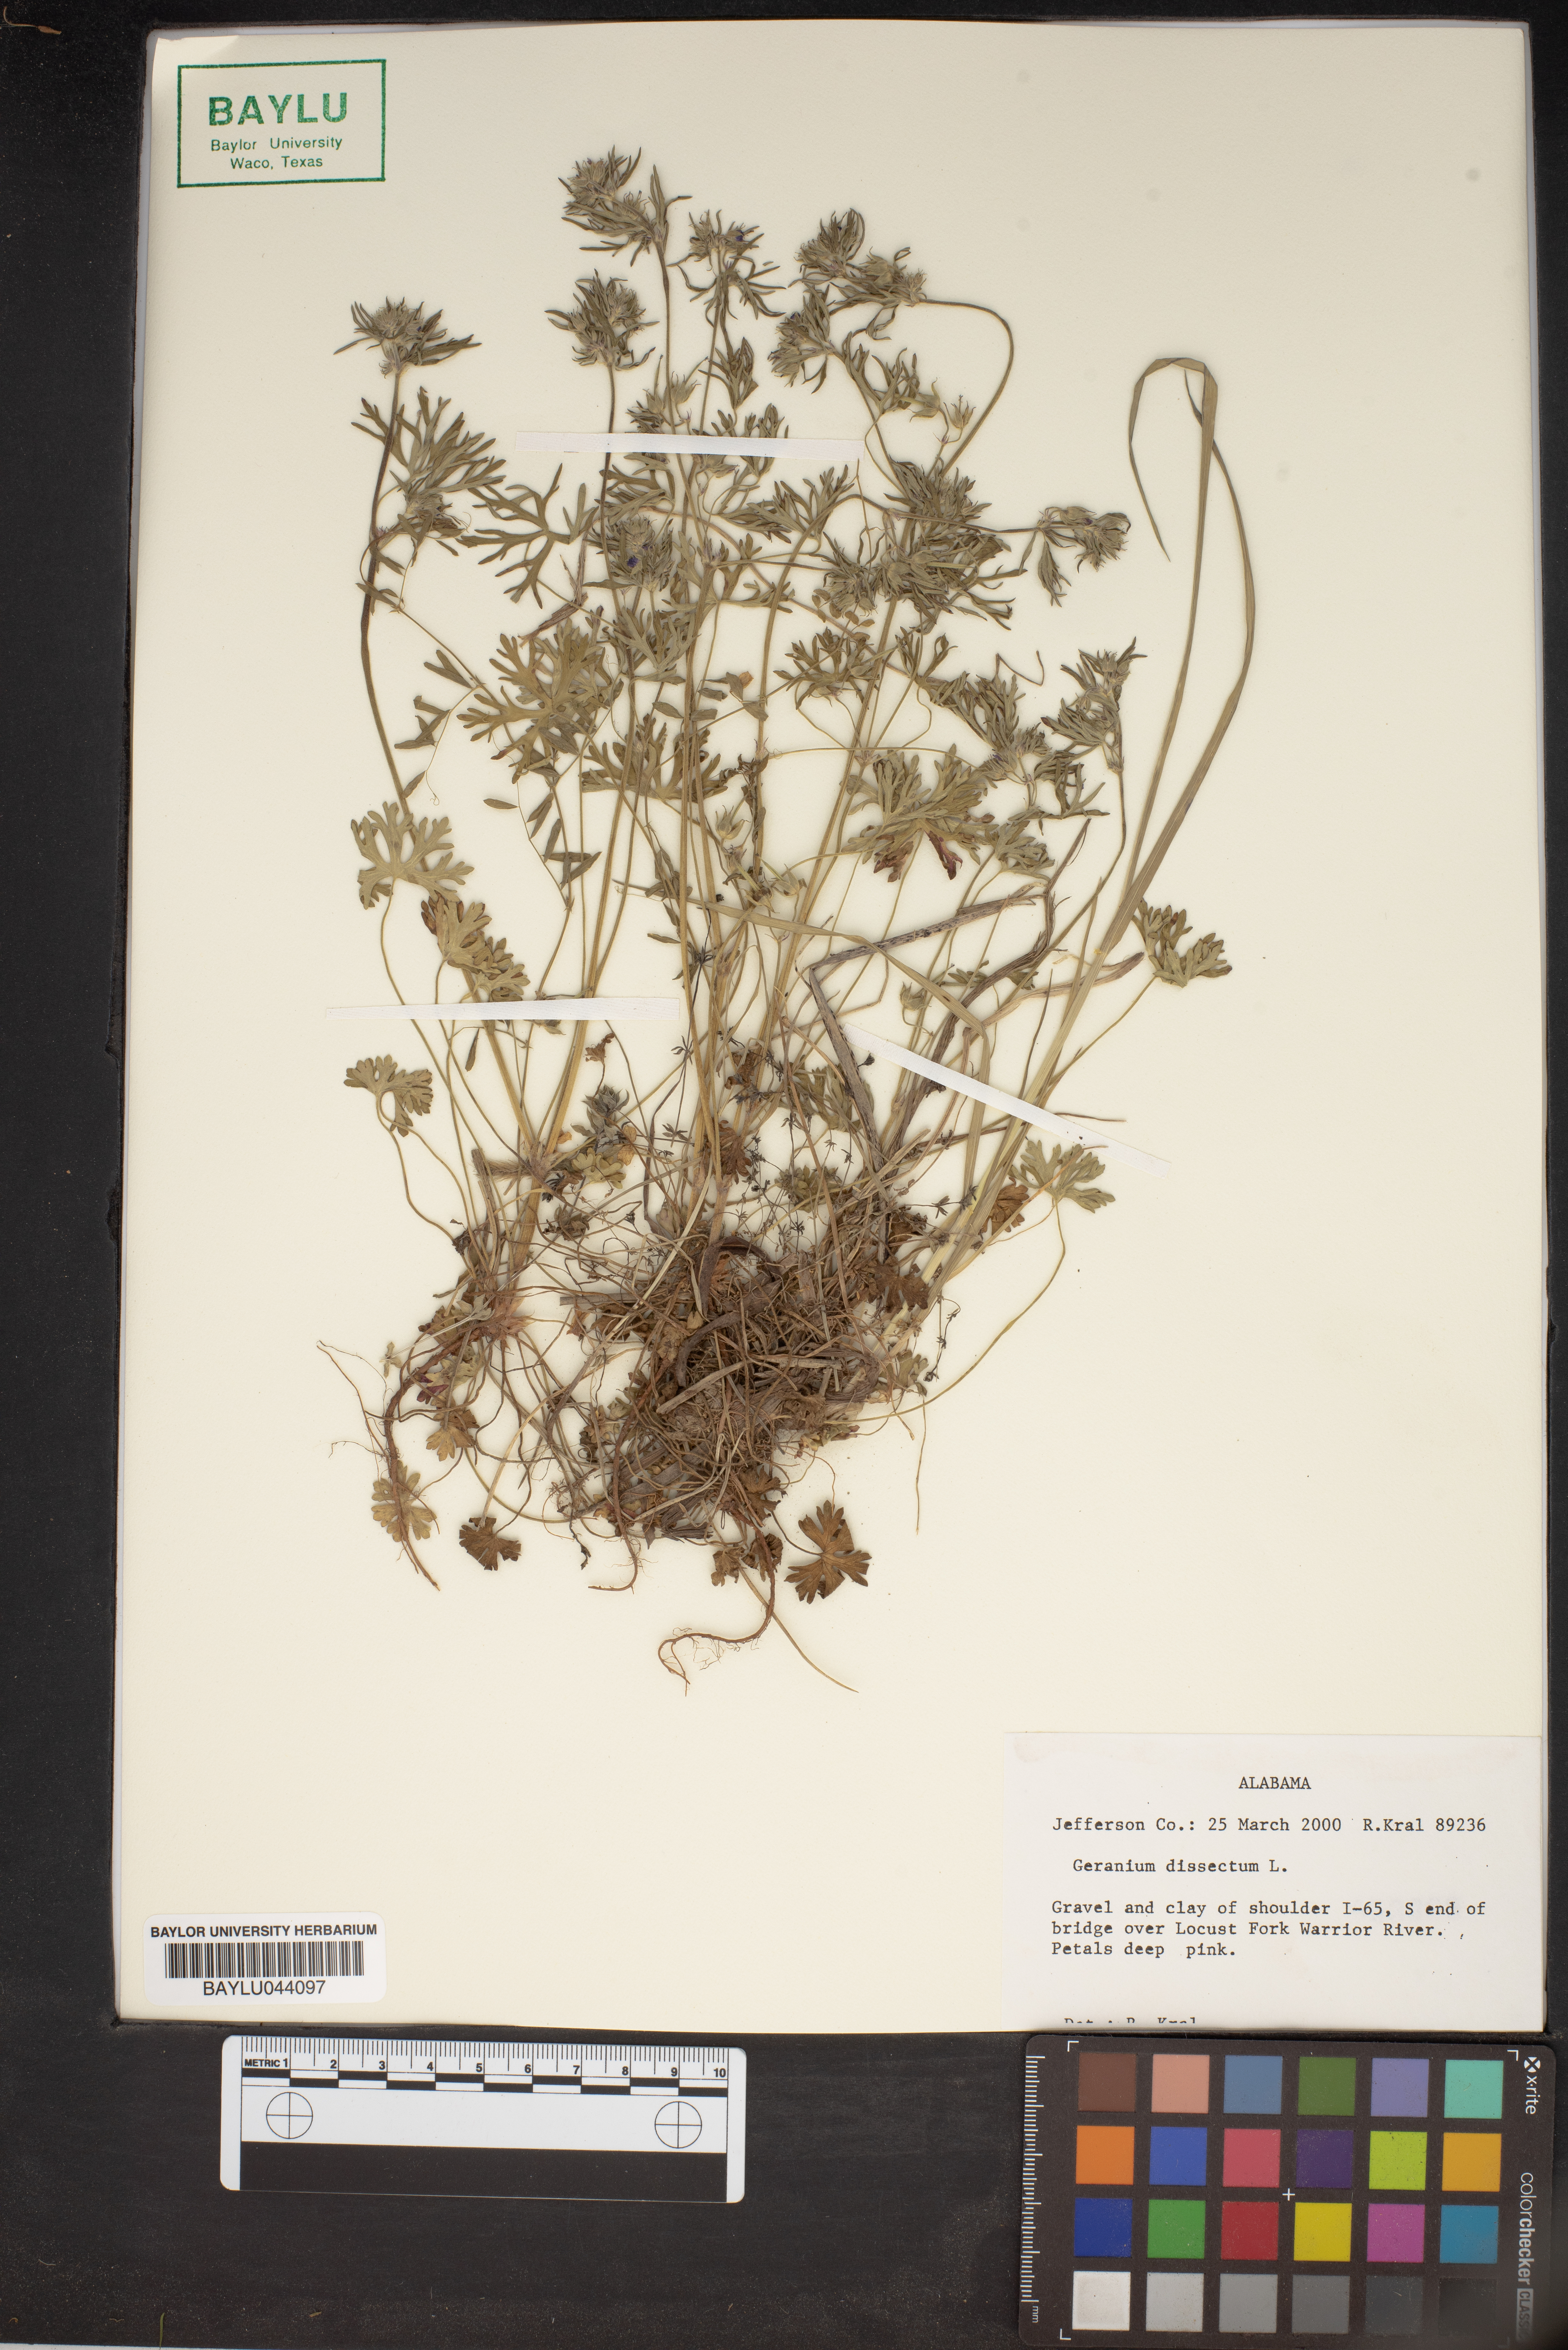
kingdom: Plantae
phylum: Tracheophyta
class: Magnoliopsida
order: Geraniales
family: Geraniaceae
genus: Geranium
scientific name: Geranium dissectum
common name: Cut-leaved crane's-bill
